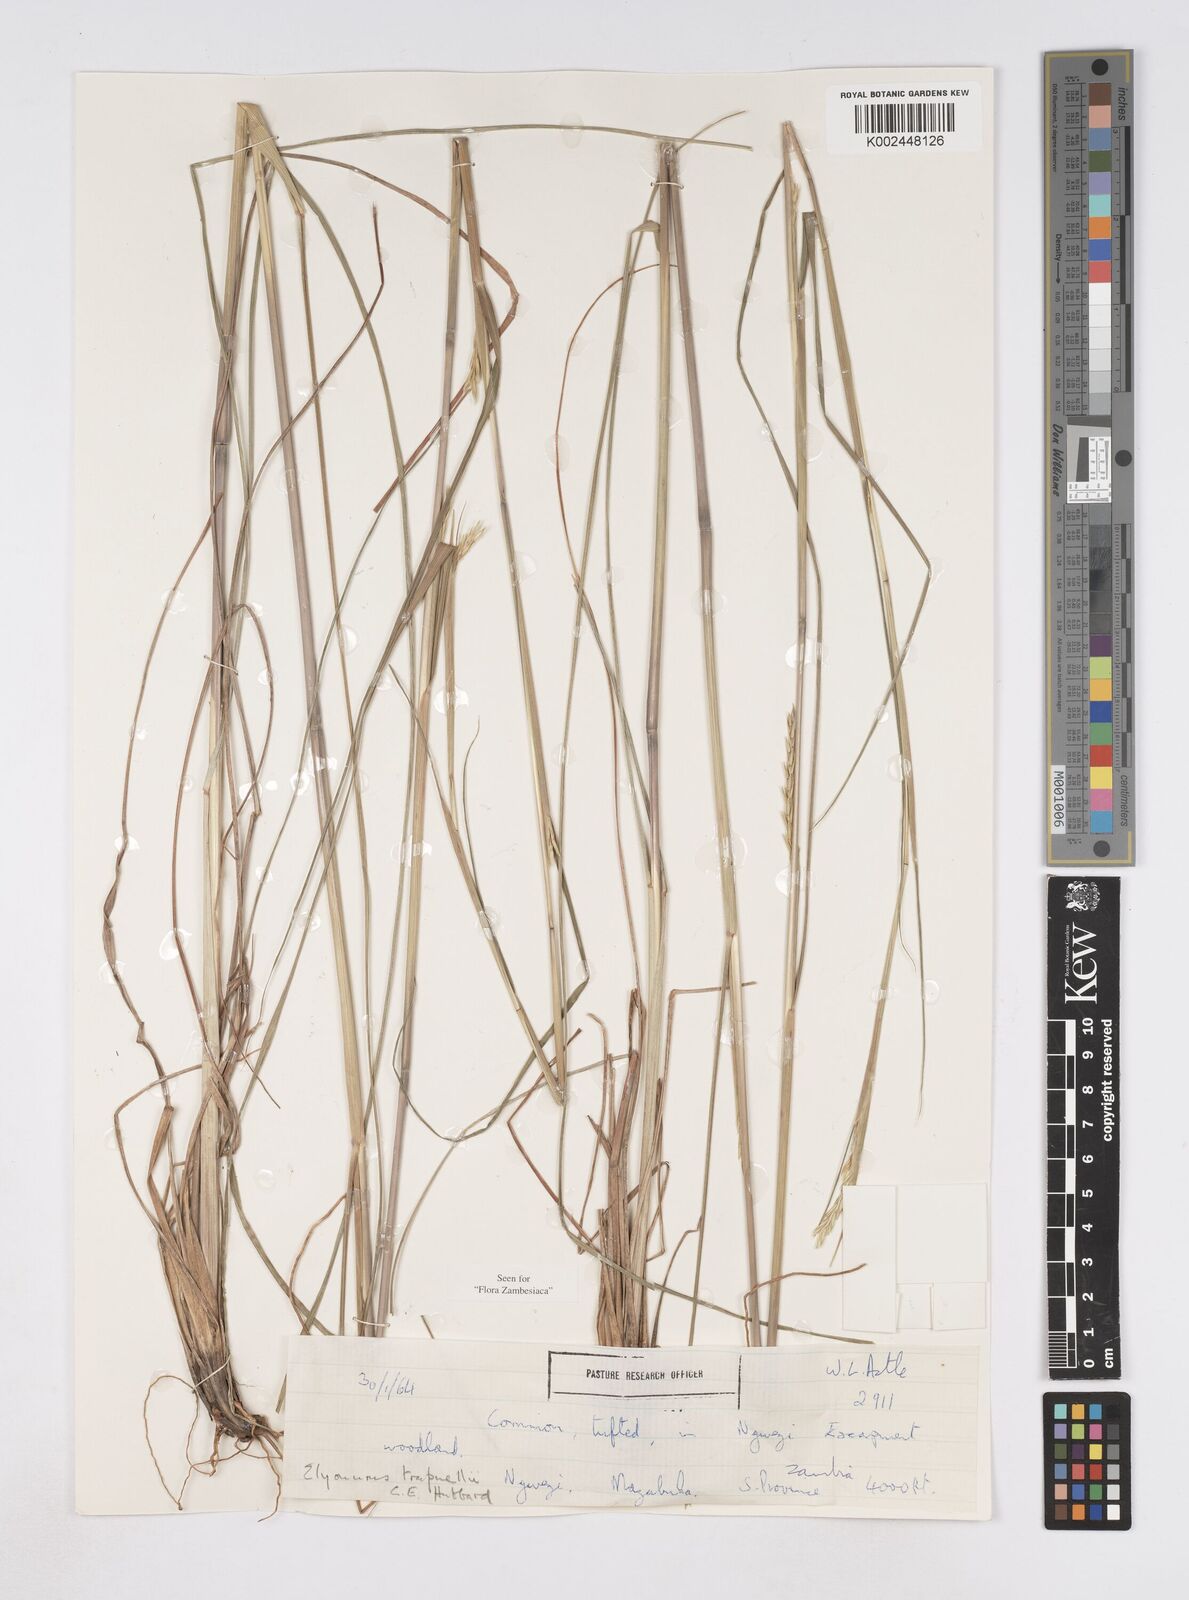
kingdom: Plantae
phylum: Tracheophyta
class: Liliopsida
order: Poales
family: Poaceae
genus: Elionurus
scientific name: Elionurus tripsacoides
